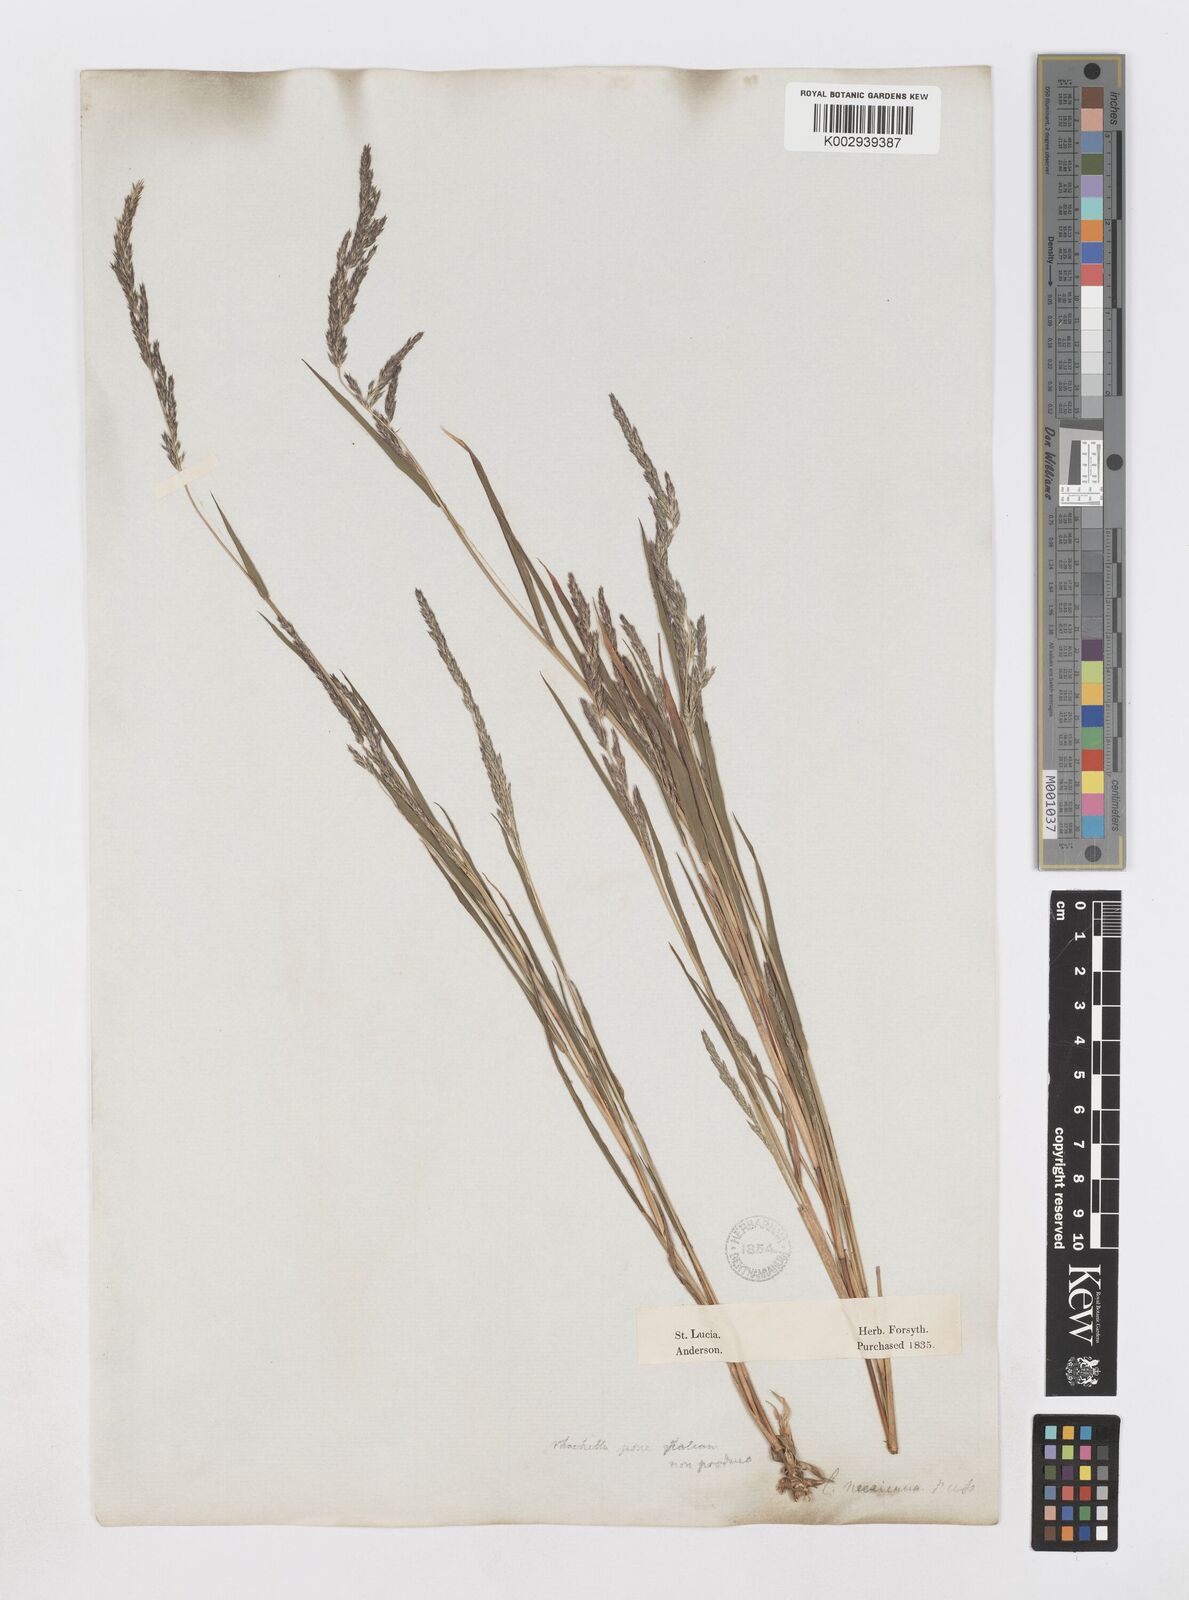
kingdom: Plantae
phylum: Tracheophyta
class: Liliopsida
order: Poales
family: Poaceae
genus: Muhlenbergia
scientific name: Muhlenbergia mexicana
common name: Mexican muhly
